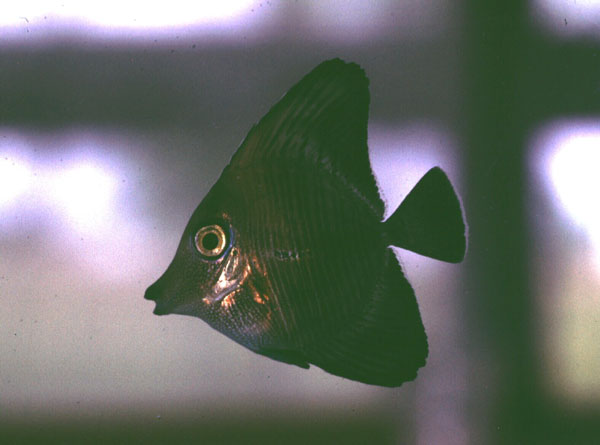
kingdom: Animalia
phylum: Chordata
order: Perciformes
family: Acanthuridae
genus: Zebrasoma
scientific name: Zebrasoma desjardinii
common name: Desjardin's sailfin tang
